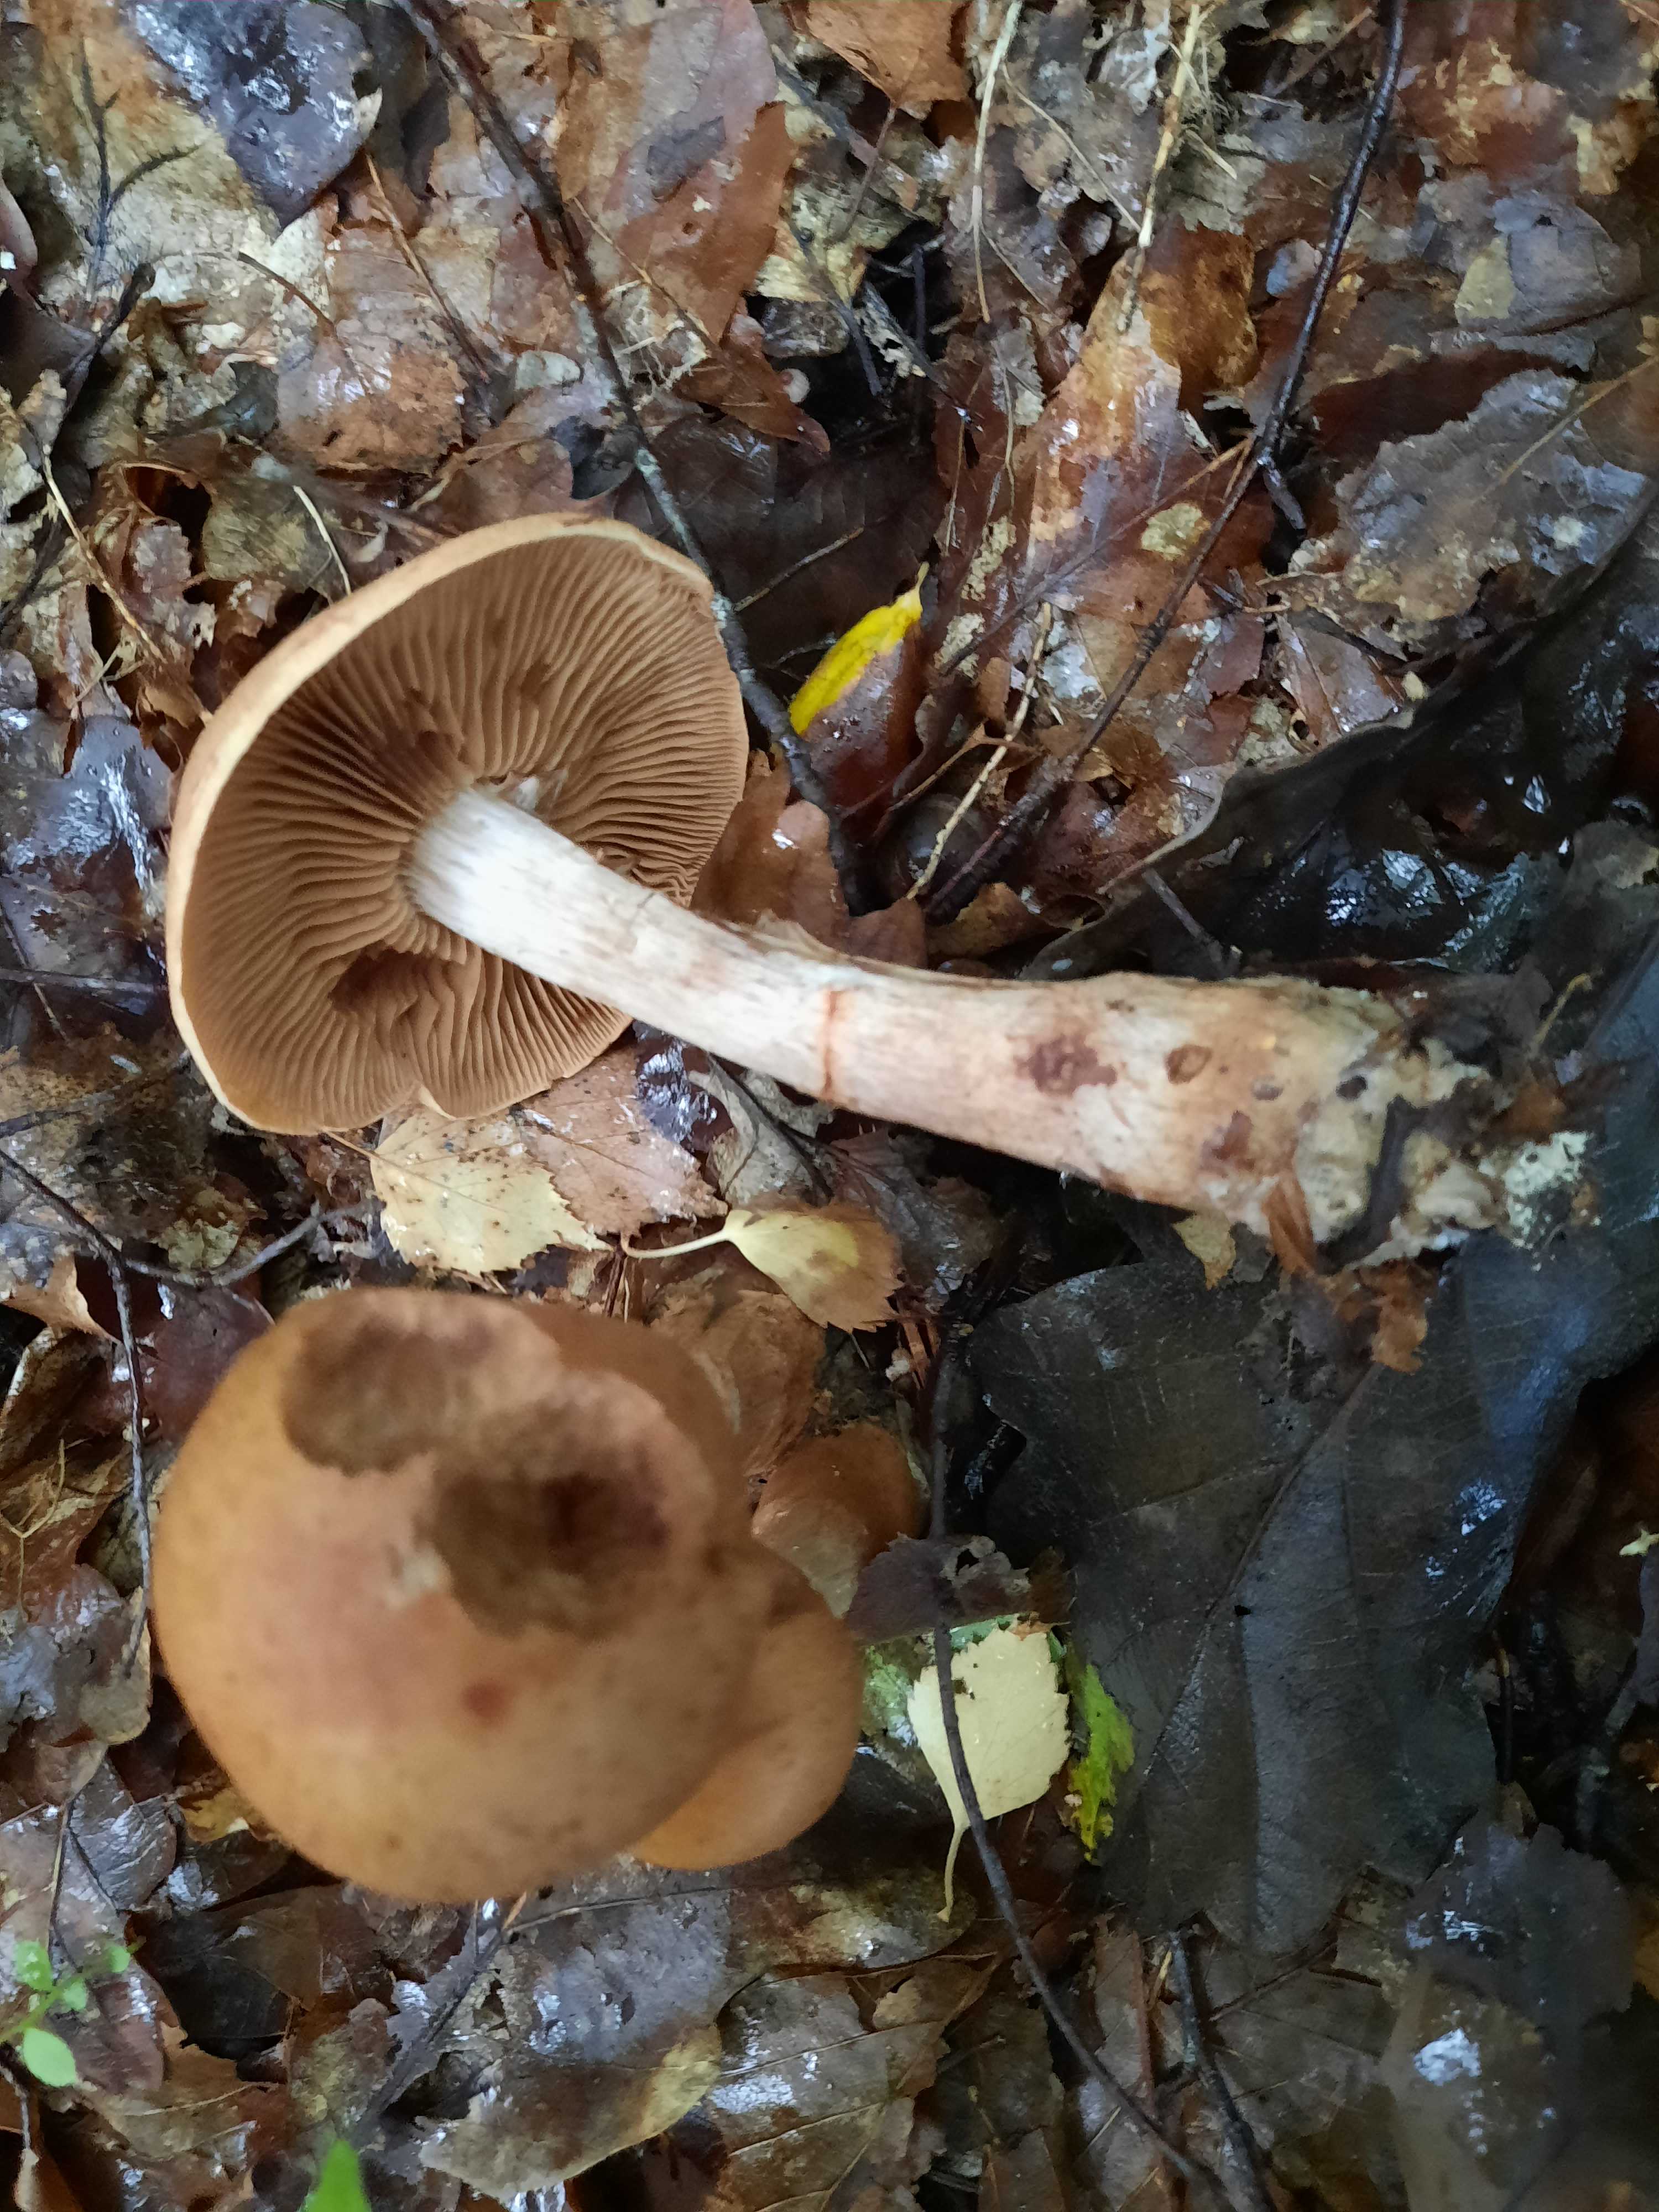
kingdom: Fungi
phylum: Basidiomycota
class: Agaricomycetes
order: Agaricales
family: Cortinariaceae
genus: Cortinarius
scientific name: Cortinarius armillatus
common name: cinnoberbæltet slørhat
